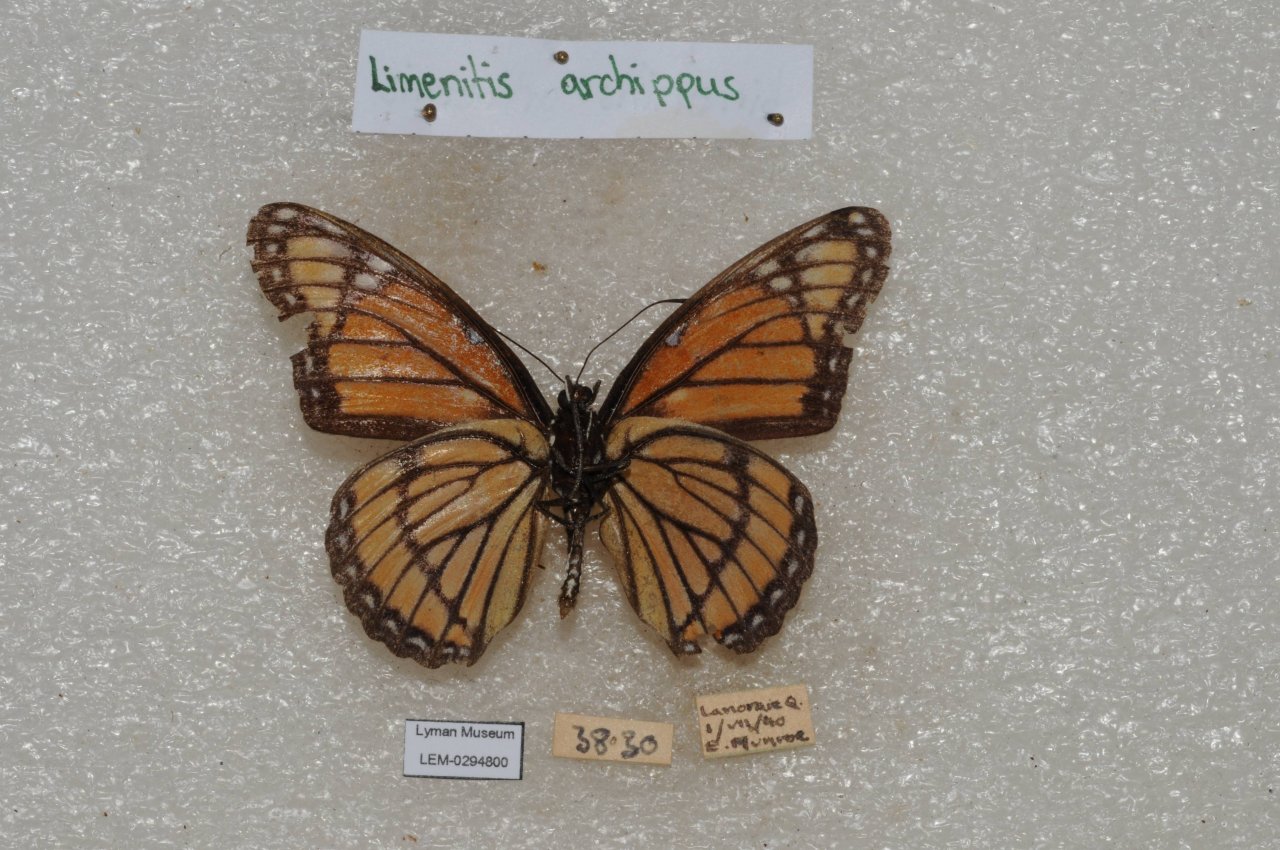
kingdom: Animalia
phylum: Arthropoda
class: Insecta
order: Lepidoptera
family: Nymphalidae
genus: Limenitis
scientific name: Limenitis archippus
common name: Viceroy
